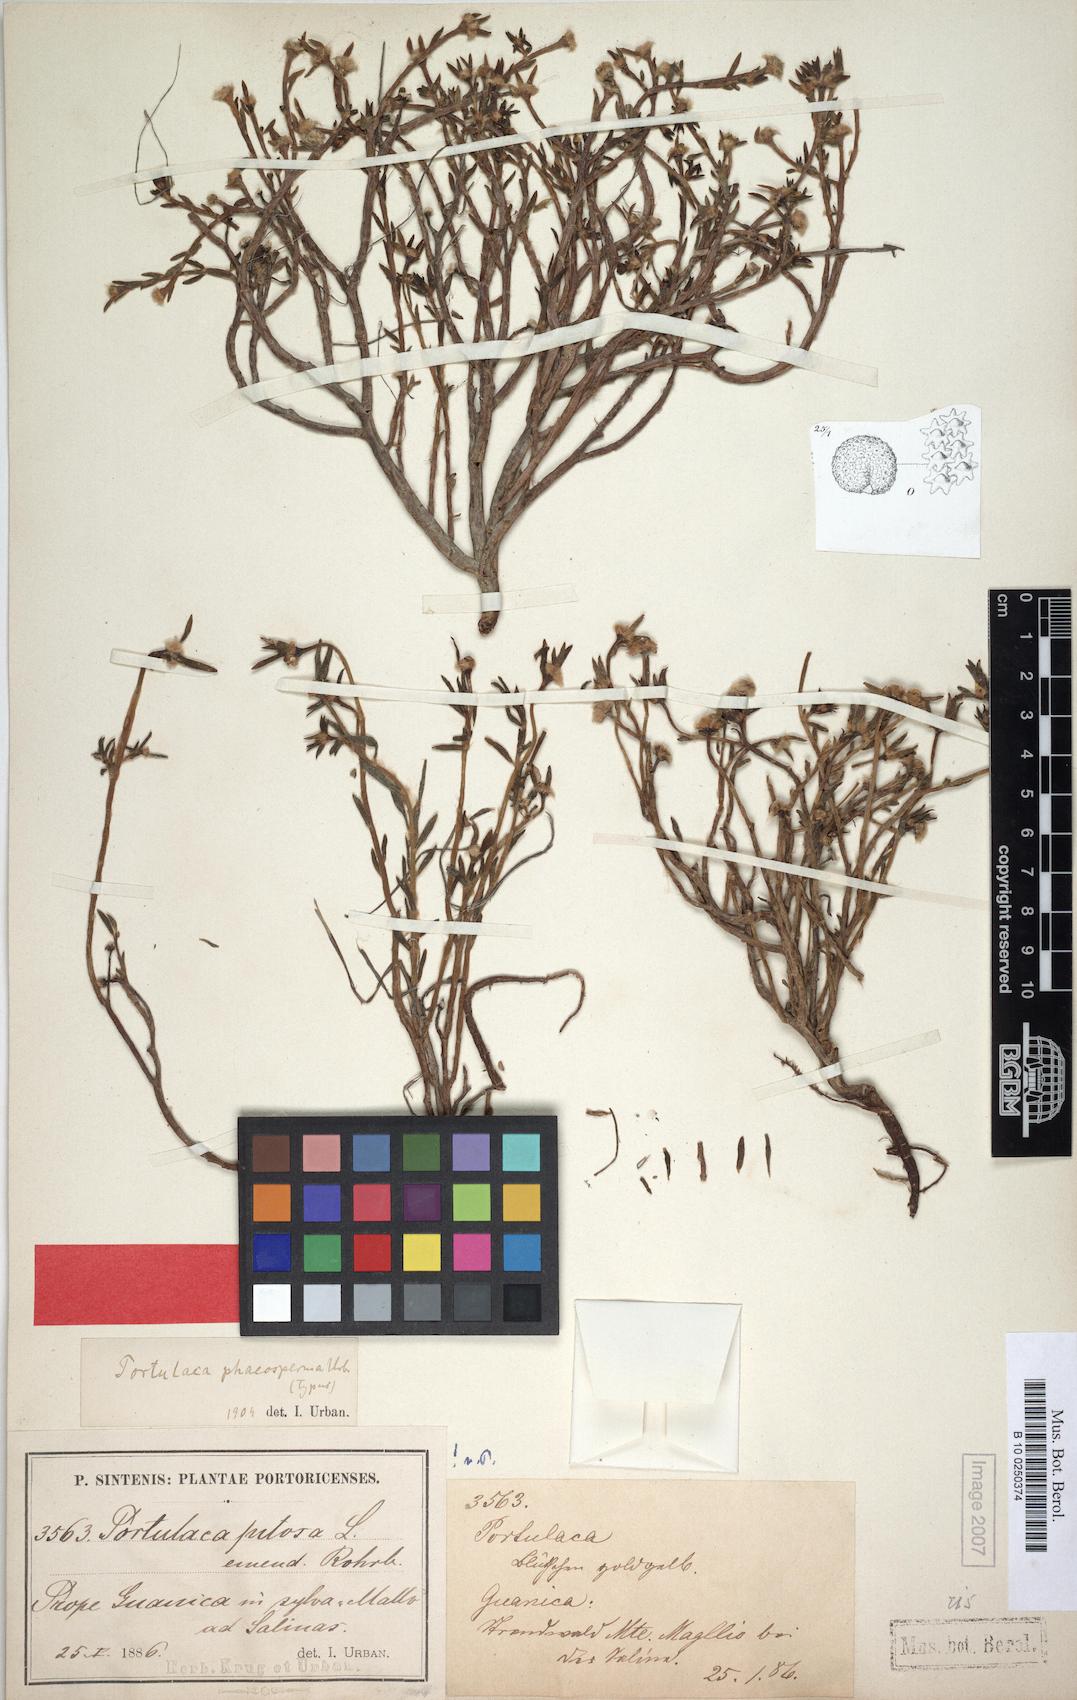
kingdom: Plantae
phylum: Tracheophyta
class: Magnoliopsida
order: Caryophyllales
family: Portulacaceae
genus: Portulaca
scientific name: Portulaca rubricaulis
